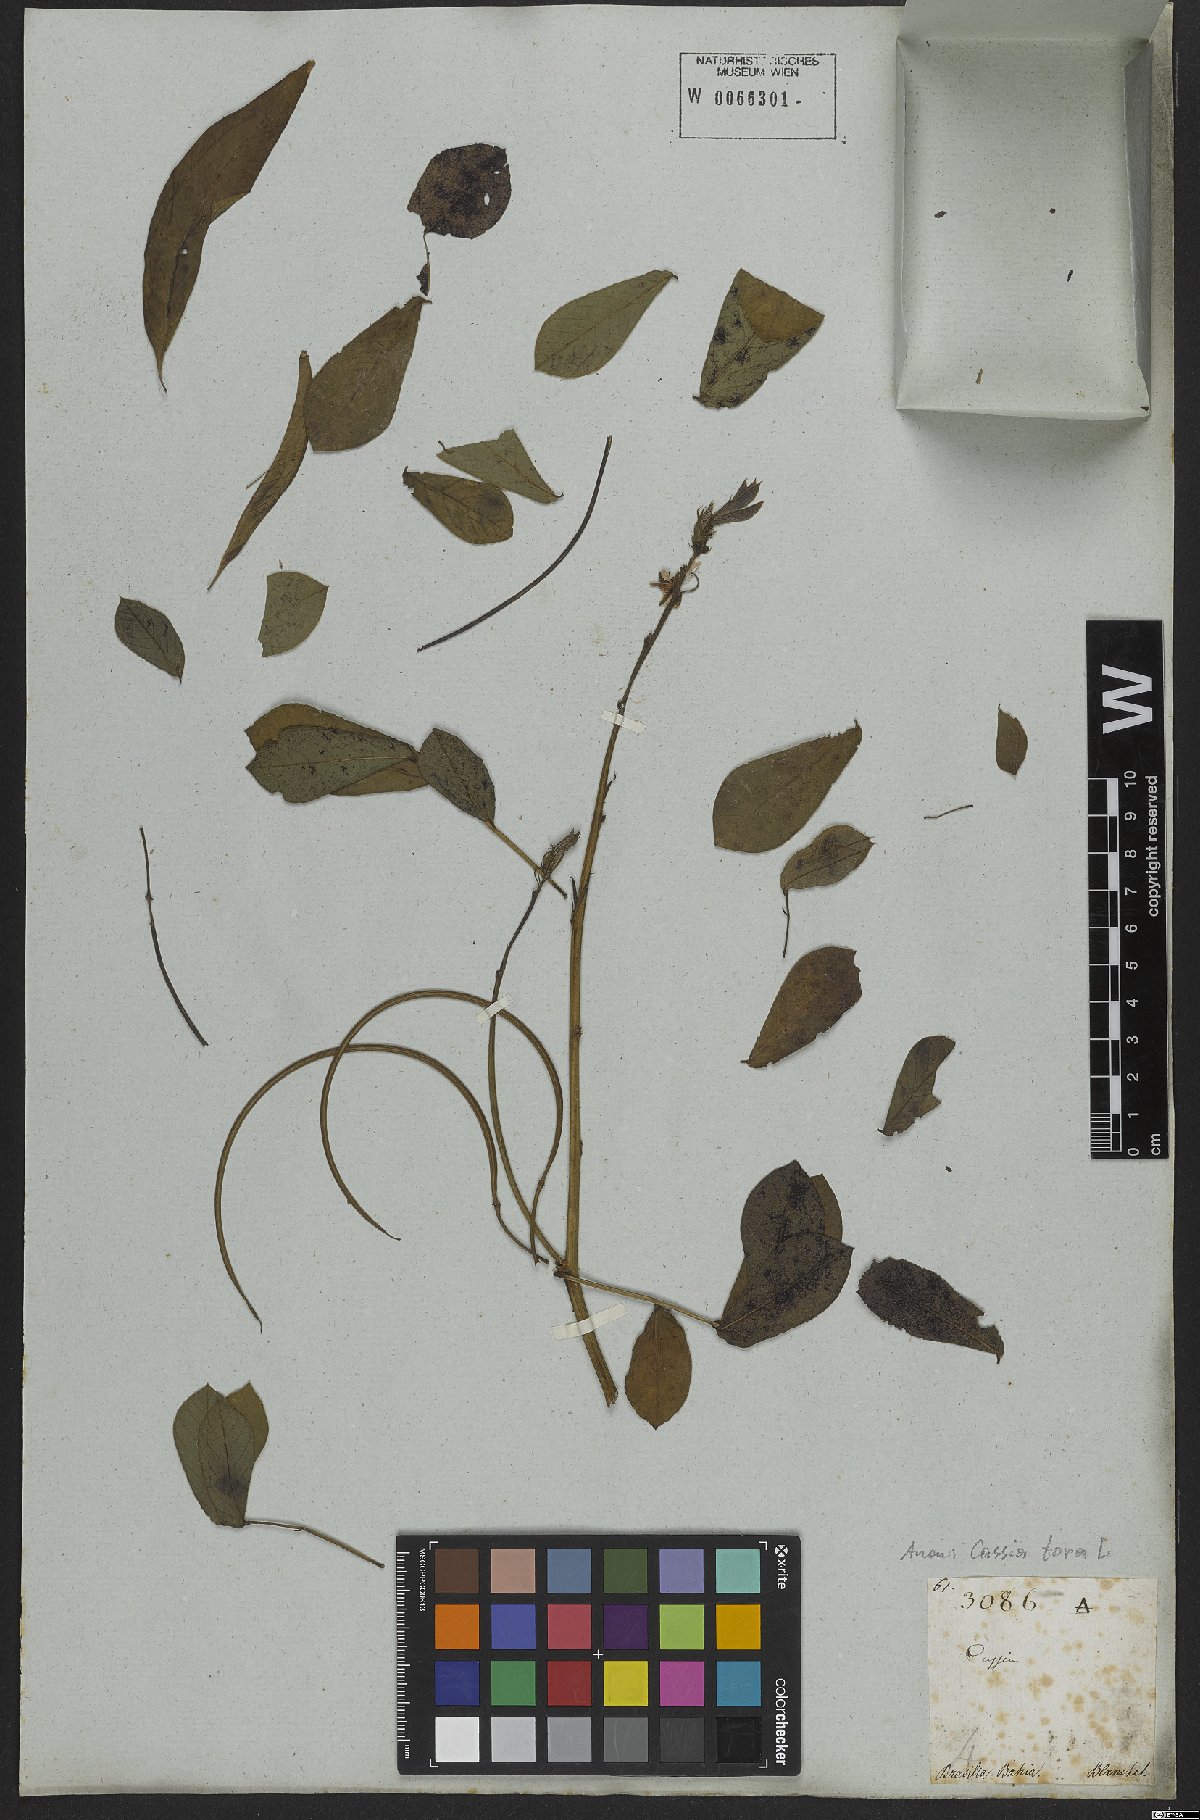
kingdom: Plantae
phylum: Tracheophyta
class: Magnoliopsida
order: Fabales
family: Fabaceae
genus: Senna
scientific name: Senna tora
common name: Sickle senna
